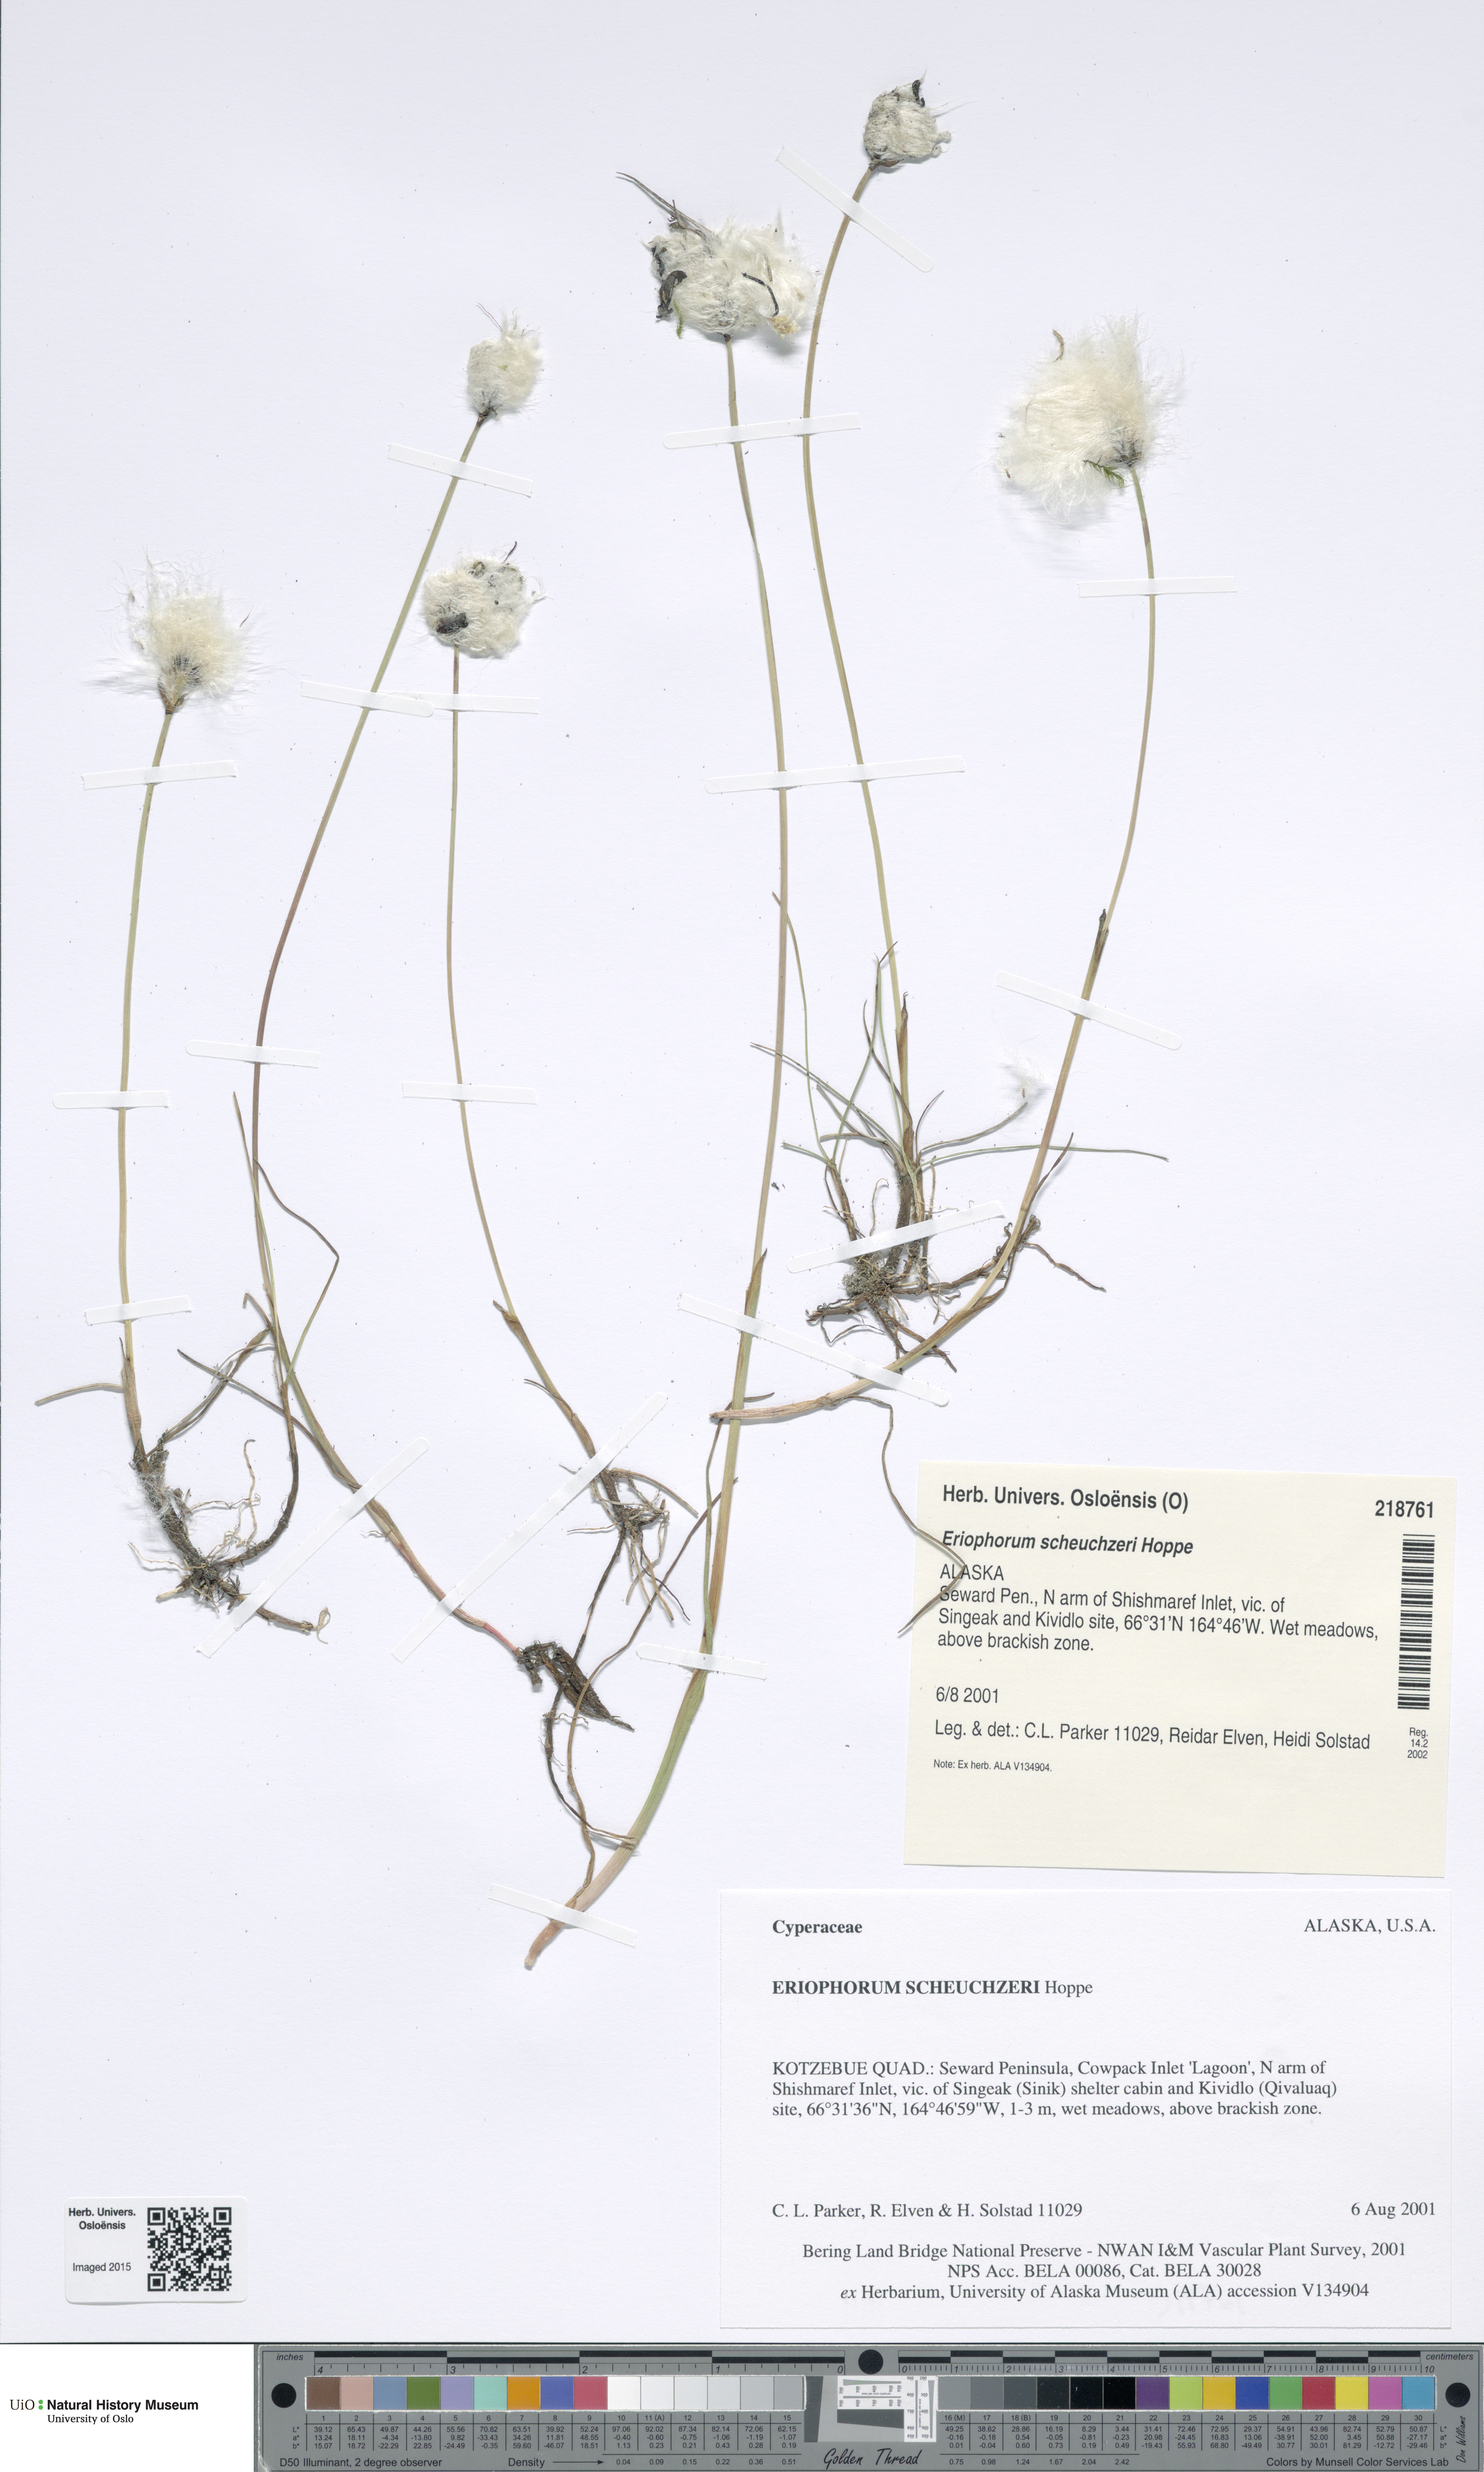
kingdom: Plantae
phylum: Tracheophyta
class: Liliopsida
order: Poales
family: Cyperaceae
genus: Eriophorum
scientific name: Eriophorum scheuchzeri
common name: Scheuchzer's cottongrass
